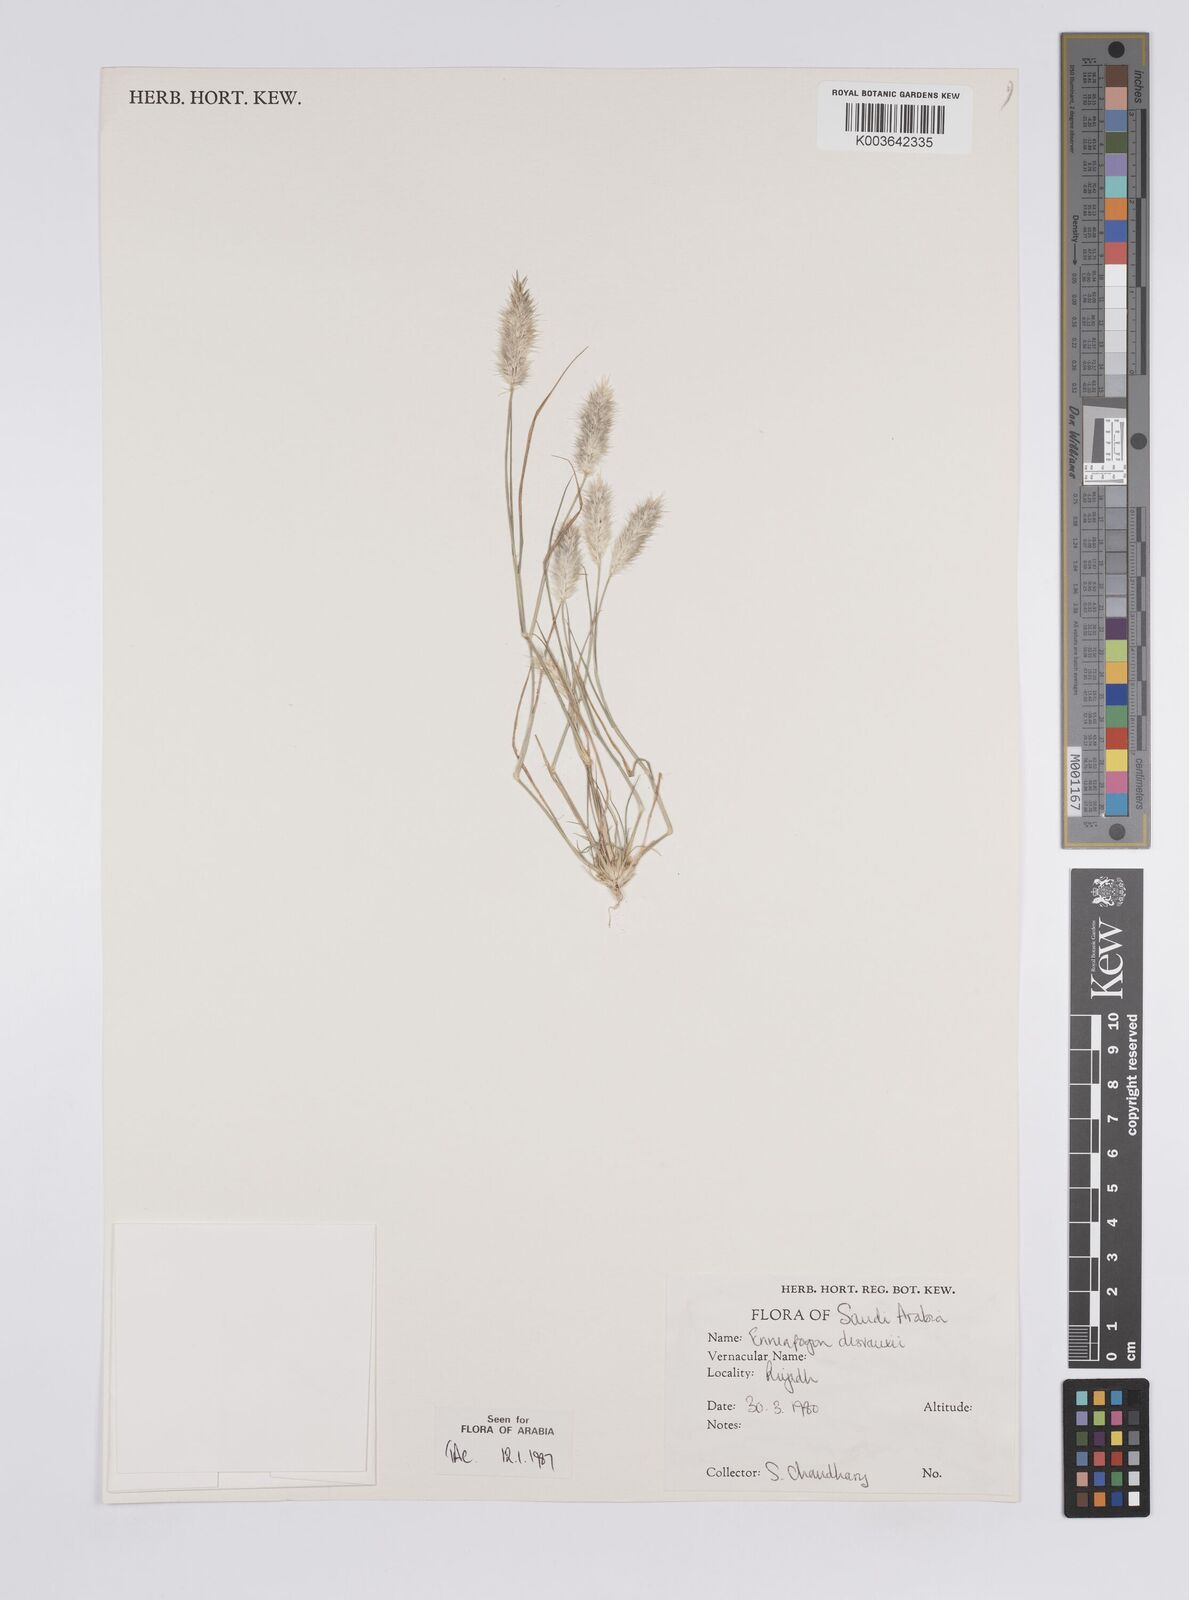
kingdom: Plantae
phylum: Tracheophyta
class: Liliopsida
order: Poales
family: Poaceae
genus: Enneapogon
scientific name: Enneapogon desvauxii
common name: Feather pappus grass
